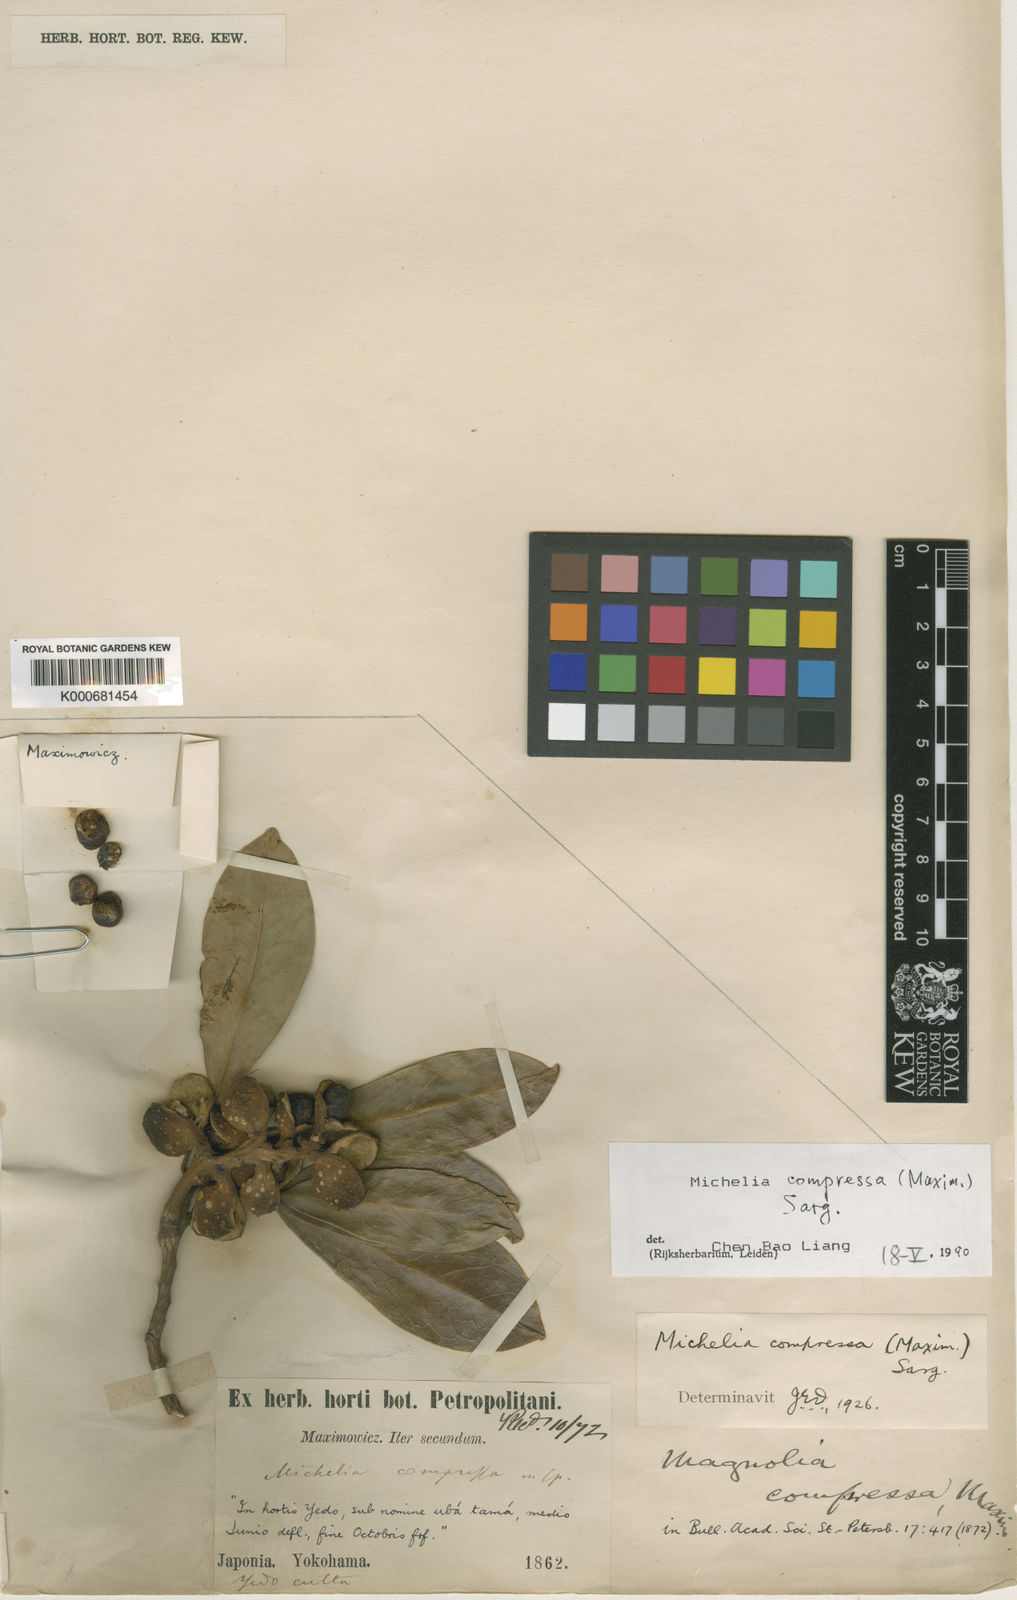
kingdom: Plantae
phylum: Tracheophyta
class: Magnoliopsida
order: Magnoliales
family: Magnoliaceae
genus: Magnolia
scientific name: Magnolia compressa
